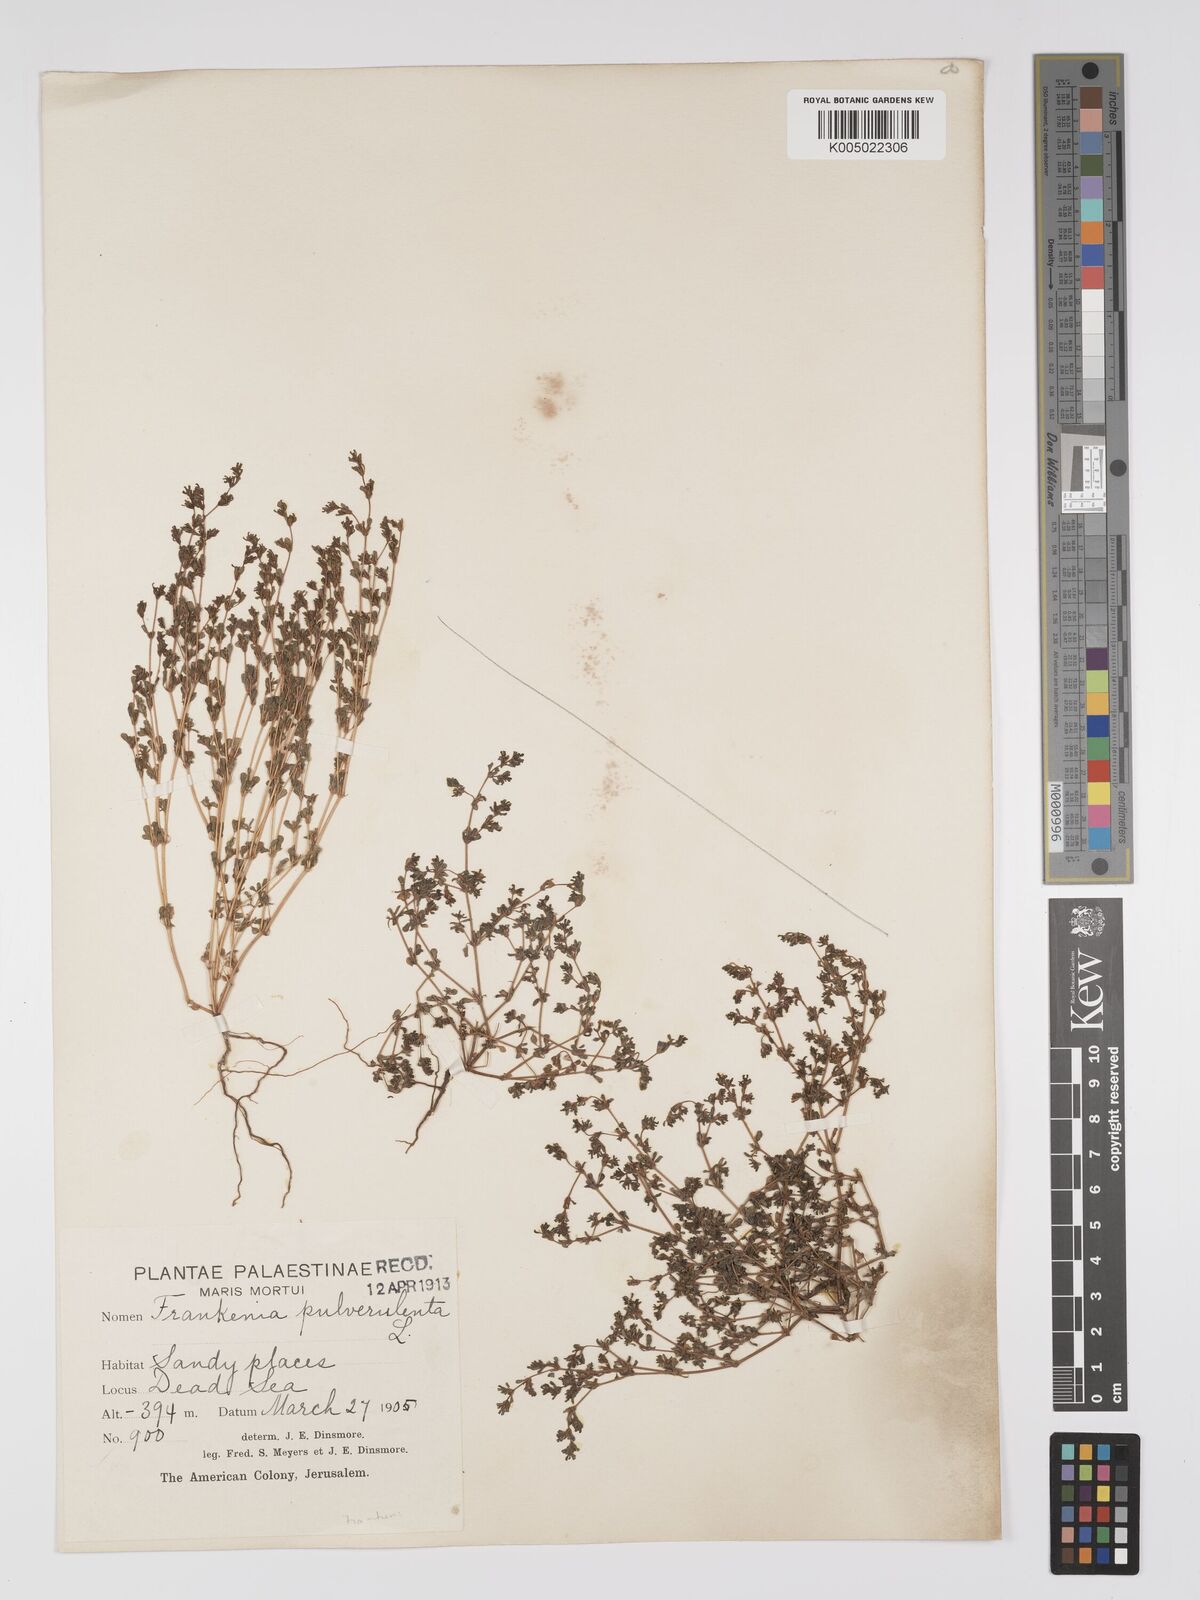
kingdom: Plantae
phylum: Tracheophyta
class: Magnoliopsida
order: Caryophyllales
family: Frankeniaceae
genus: Frankenia
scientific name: Frankenia pulverulenta
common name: European seaheath
